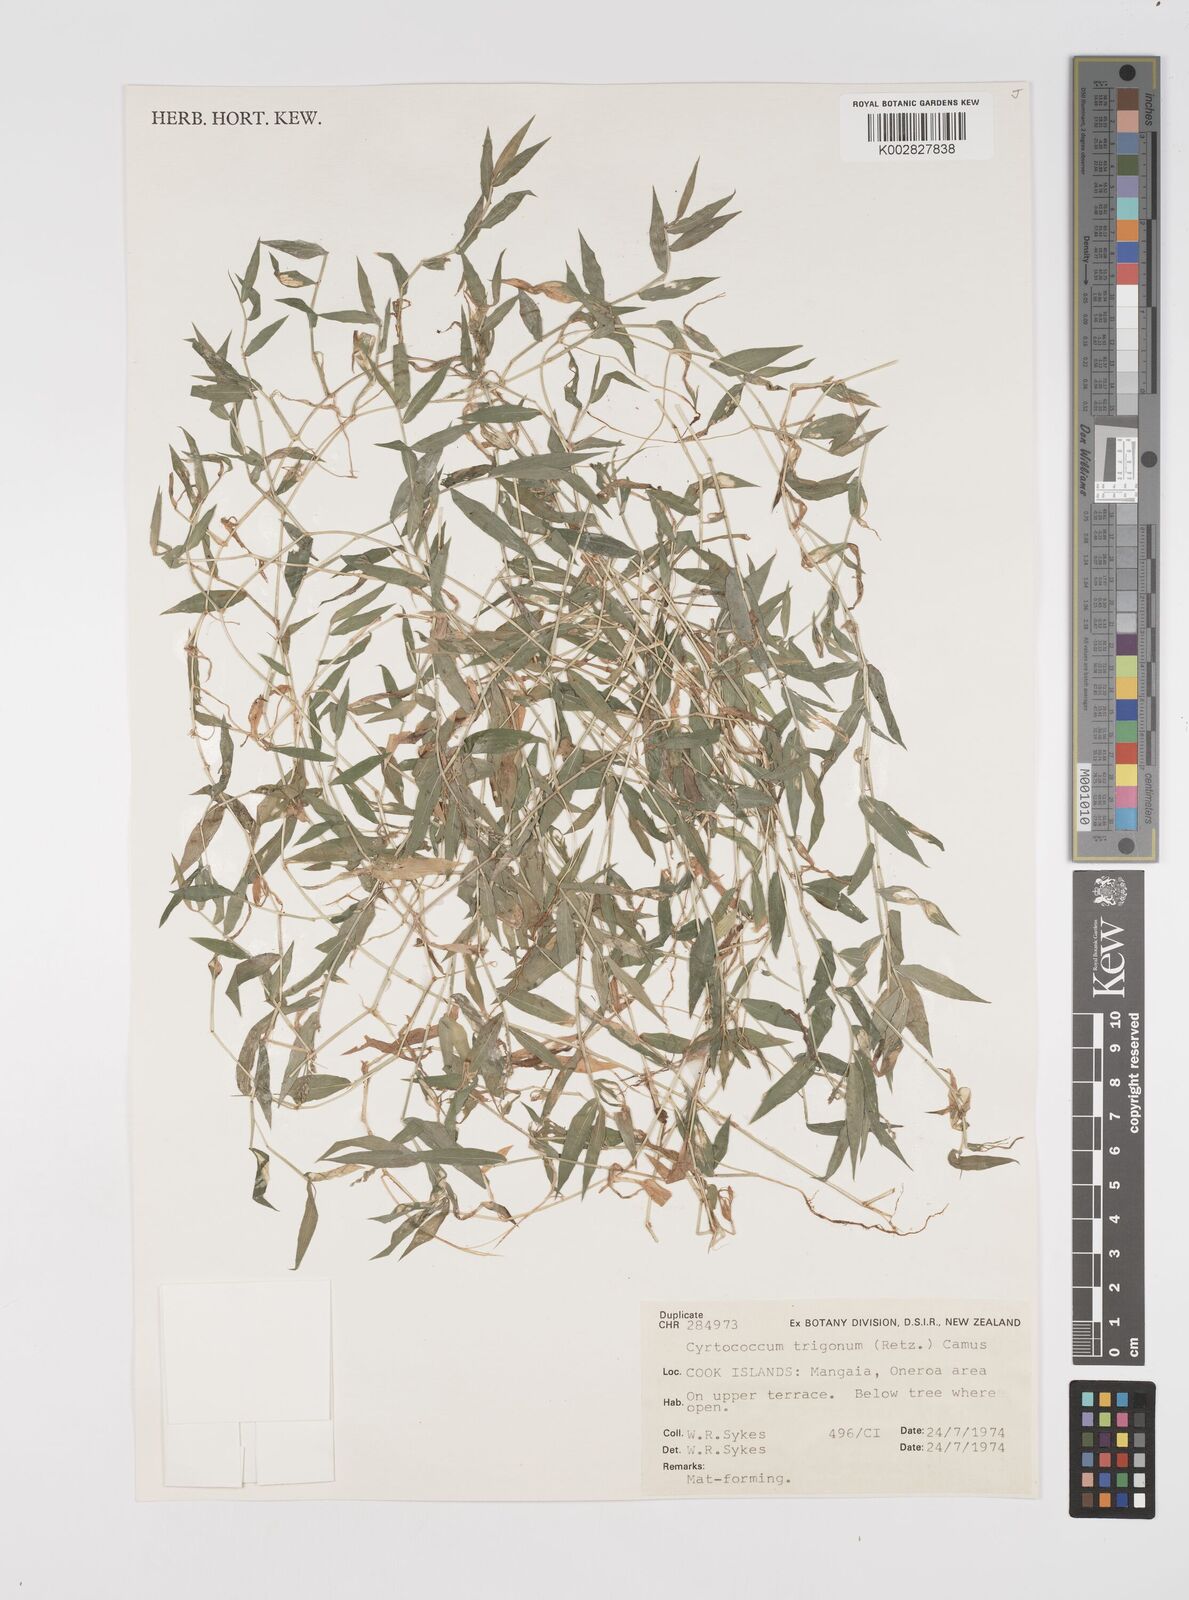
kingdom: Plantae
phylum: Tracheophyta
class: Liliopsida
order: Poales
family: Poaceae
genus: Cyrtococcum
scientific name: Cyrtococcum trigonum
